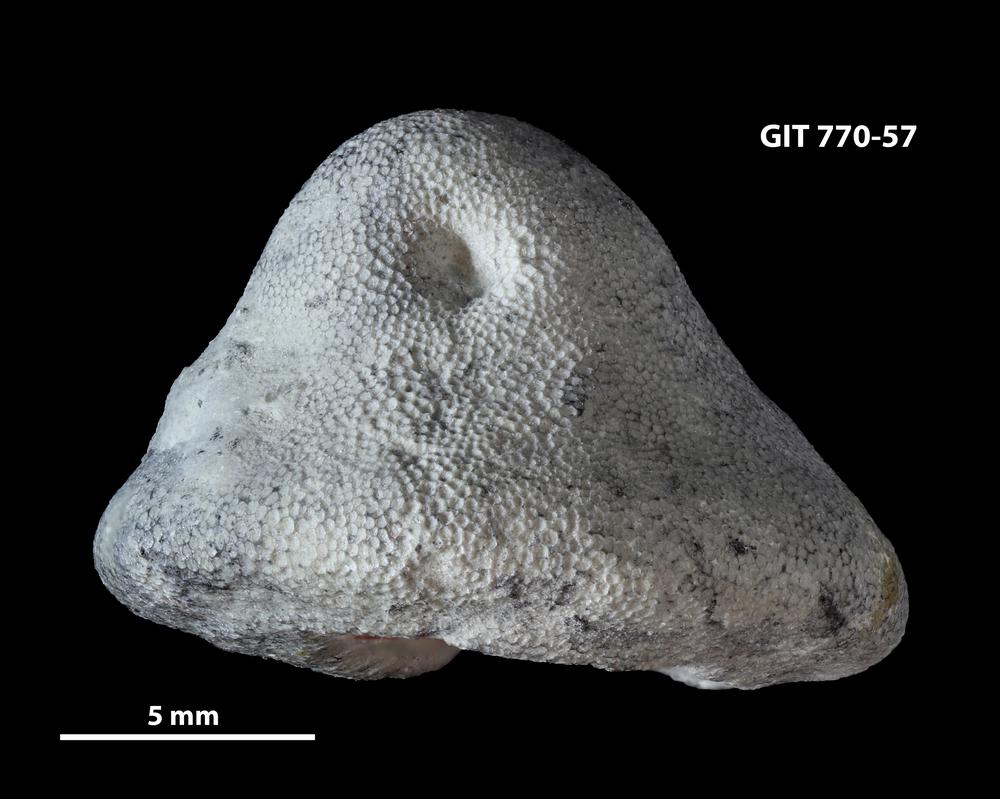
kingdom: Animalia
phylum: Bryozoa
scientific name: Bryozoa
